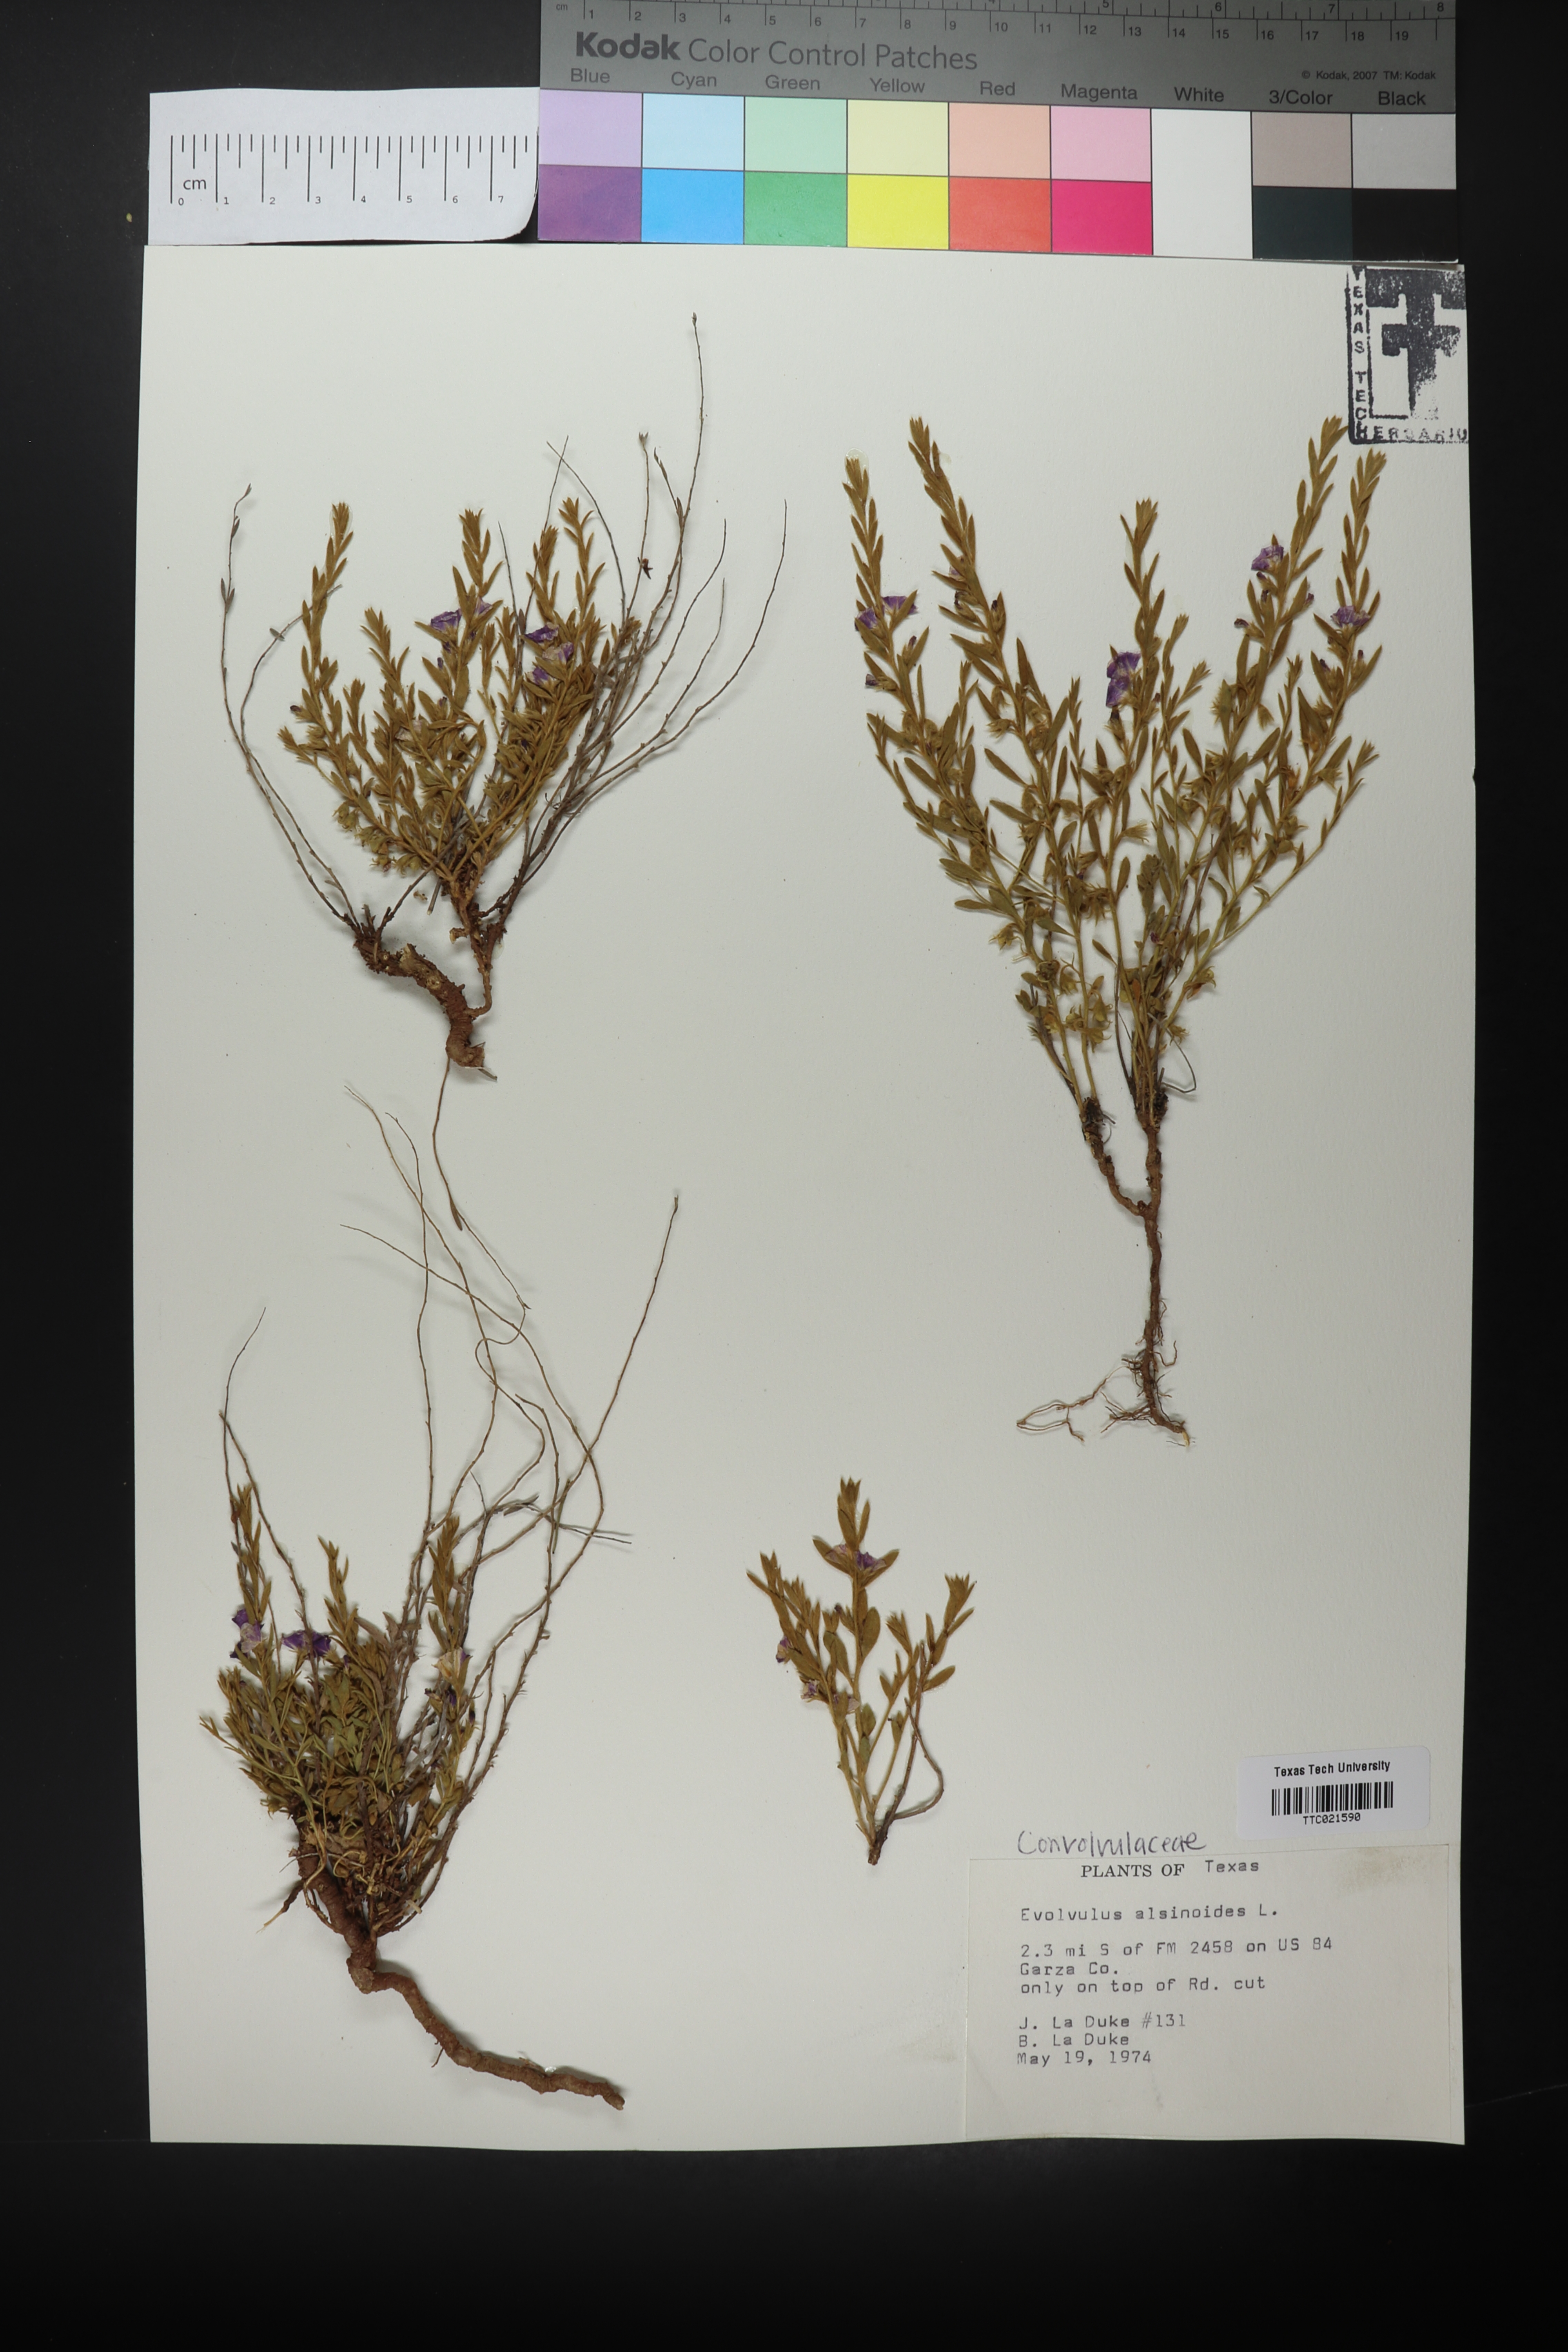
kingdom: Plantae
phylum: Tracheophyta
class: Magnoliopsida
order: Solanales
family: Convolvulaceae
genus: Evolvulus
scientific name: Evolvulus alsinoides
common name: Slender dwarf morning-glory
